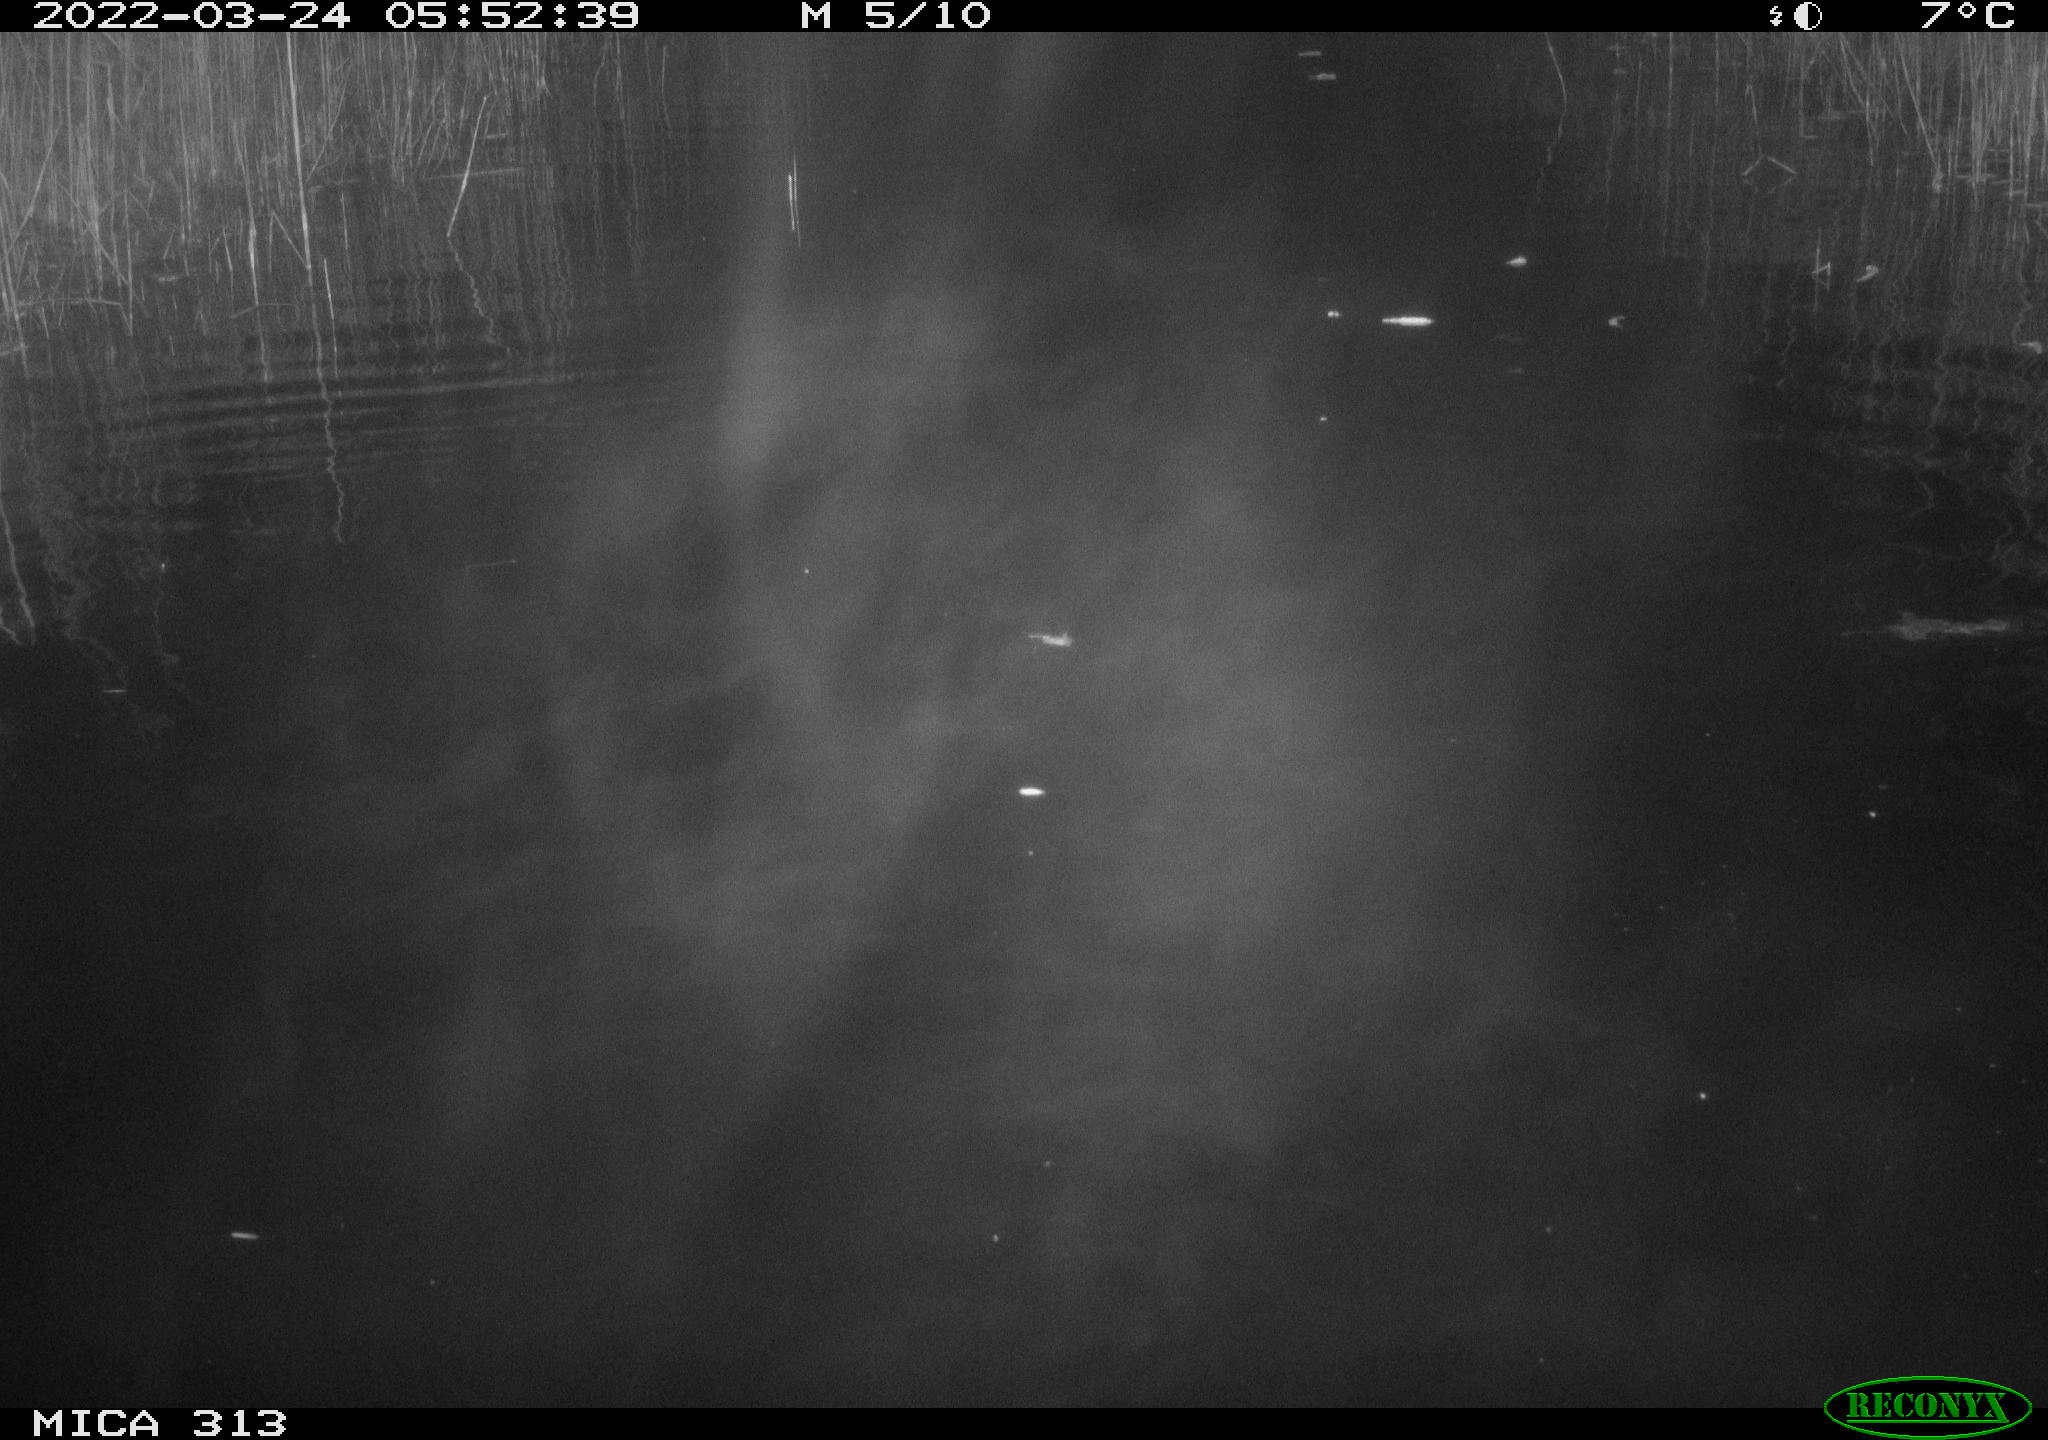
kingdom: Animalia
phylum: Chordata
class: Aves
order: Gruiformes
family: Rallidae
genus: Fulica
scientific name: Fulica atra
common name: Eurasian coot
